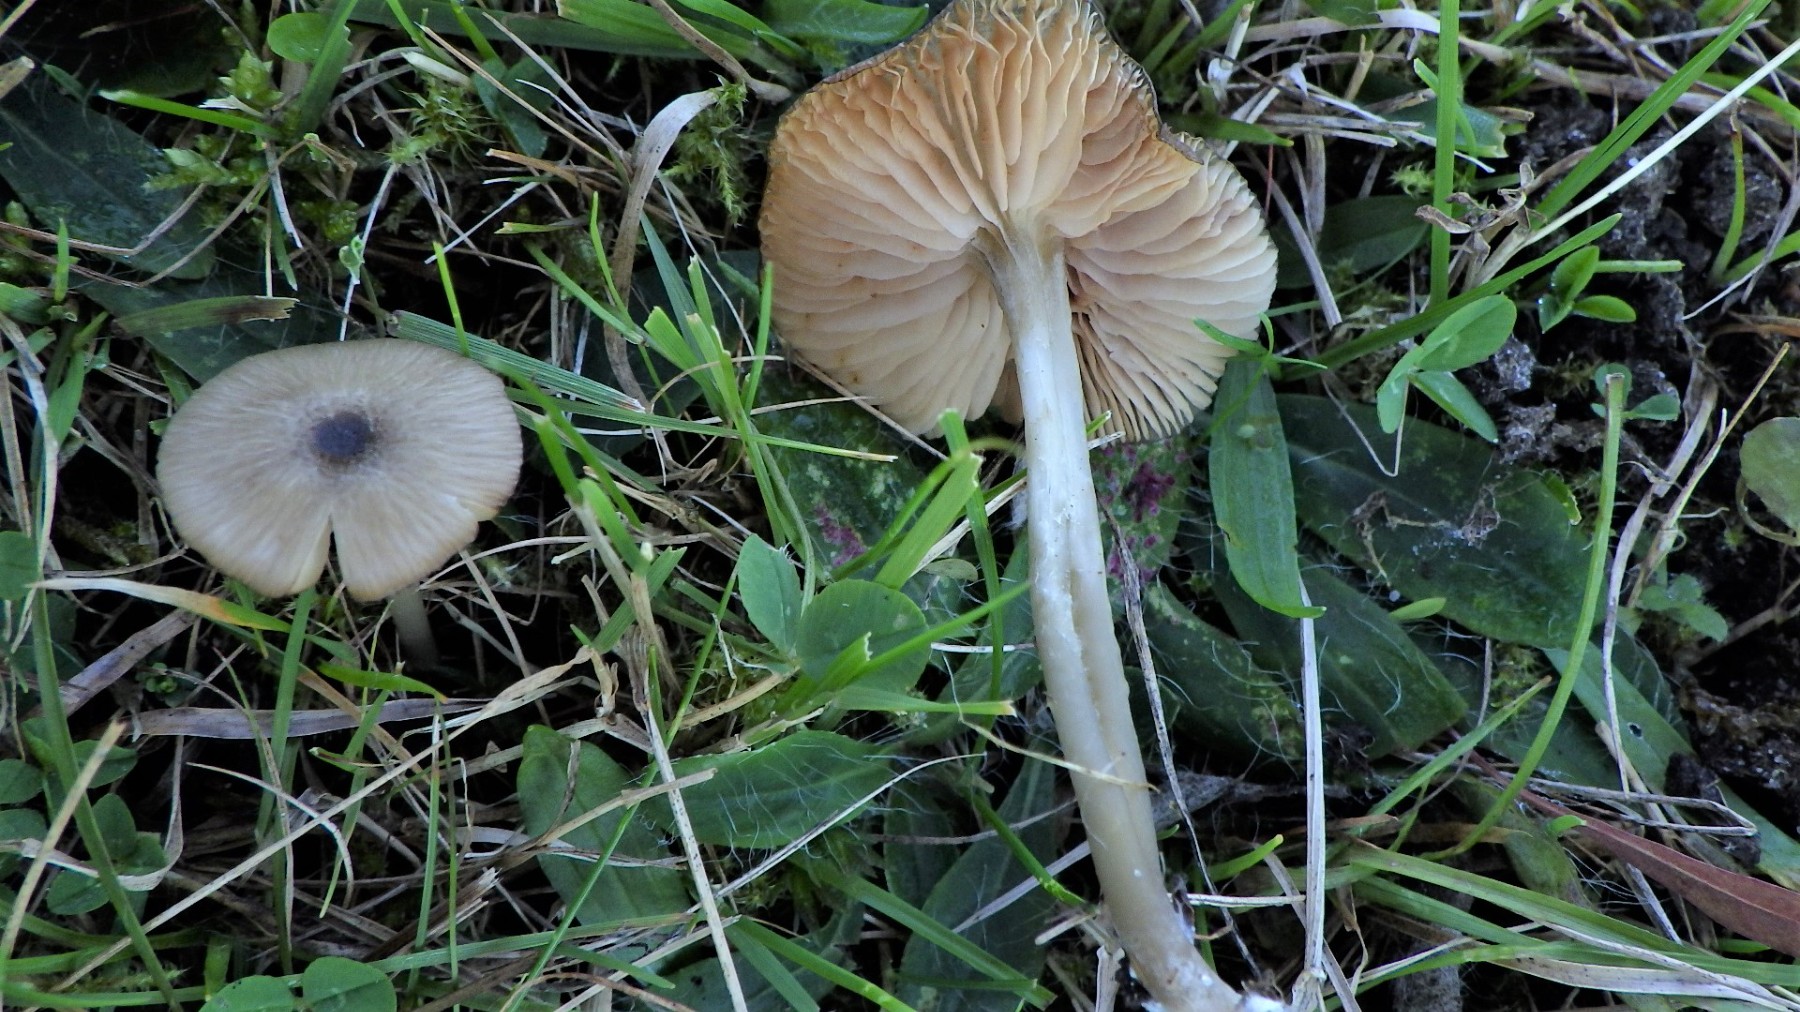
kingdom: Fungi
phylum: Basidiomycota
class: Agaricomycetes
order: Agaricales
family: Entolomataceae
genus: Entoloma
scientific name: Entoloma exile
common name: rødplettet rødblad
